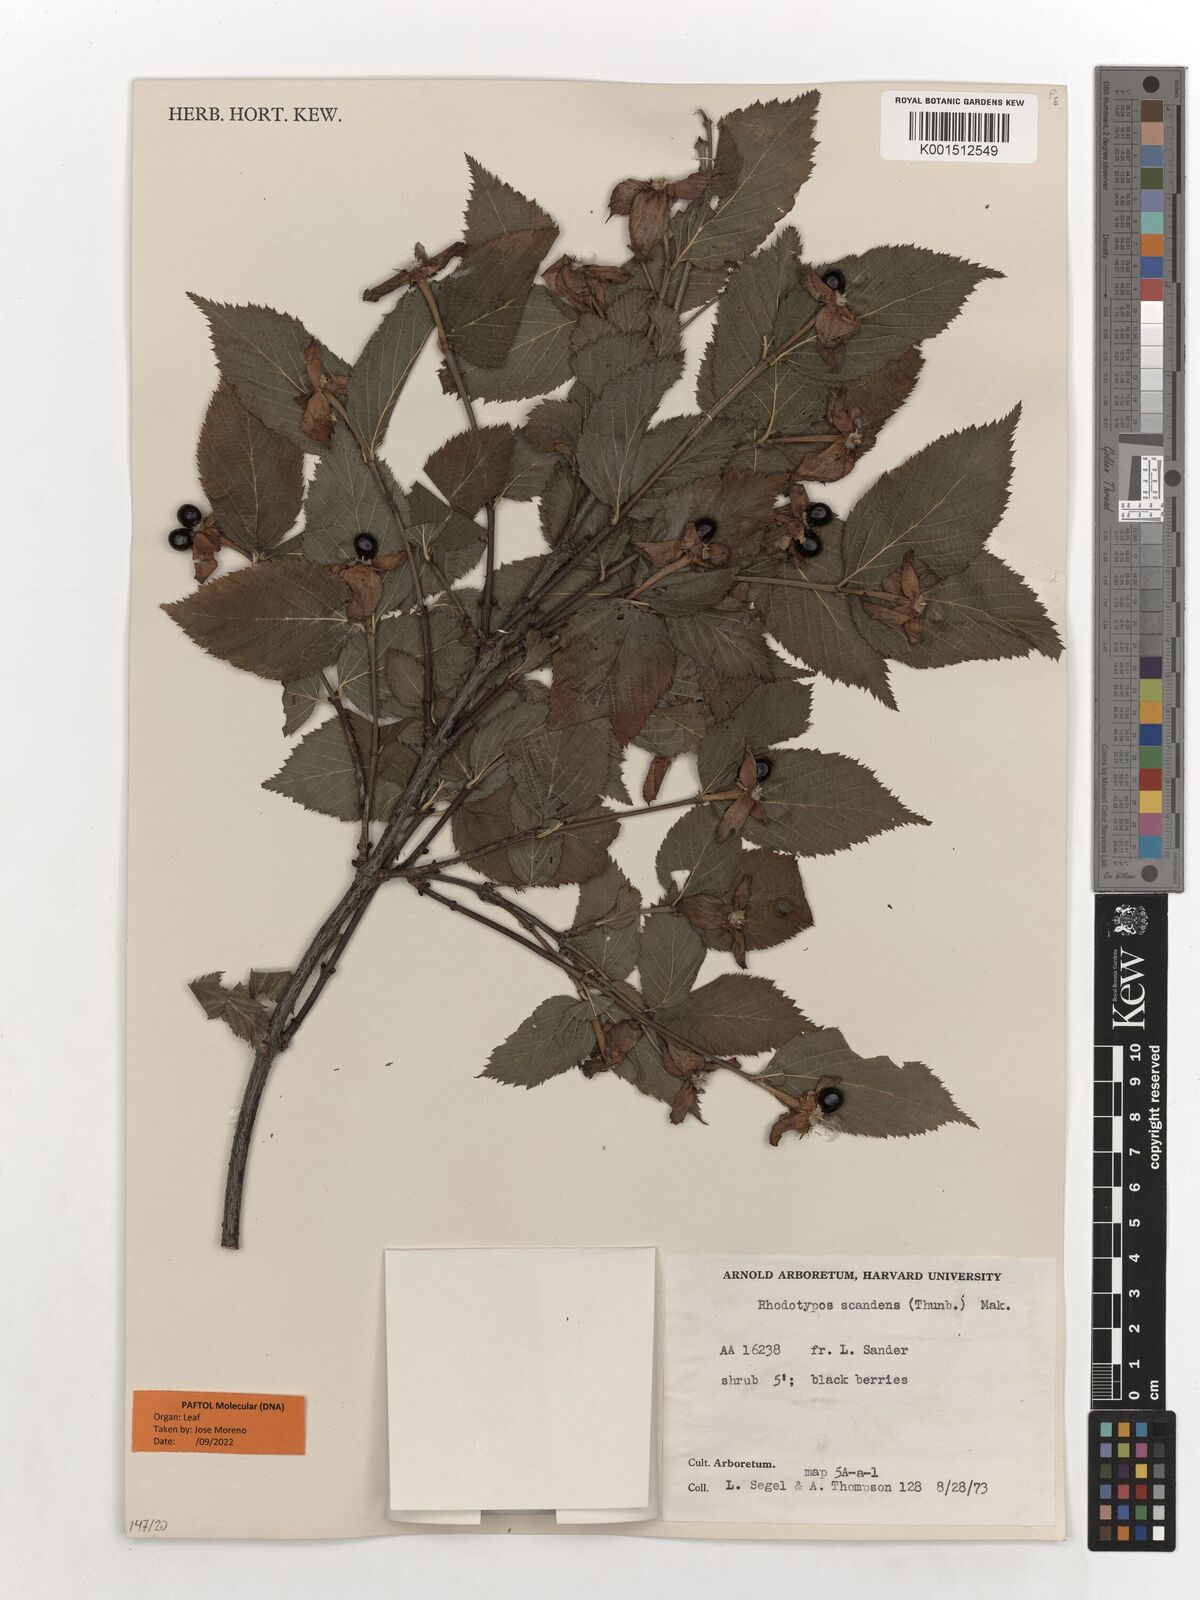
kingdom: Plantae
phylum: Tracheophyta
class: Magnoliopsida
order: Rosales
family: Rosaceae
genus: Rhodotypos
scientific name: Rhodotypos scandens
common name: Jetbead
